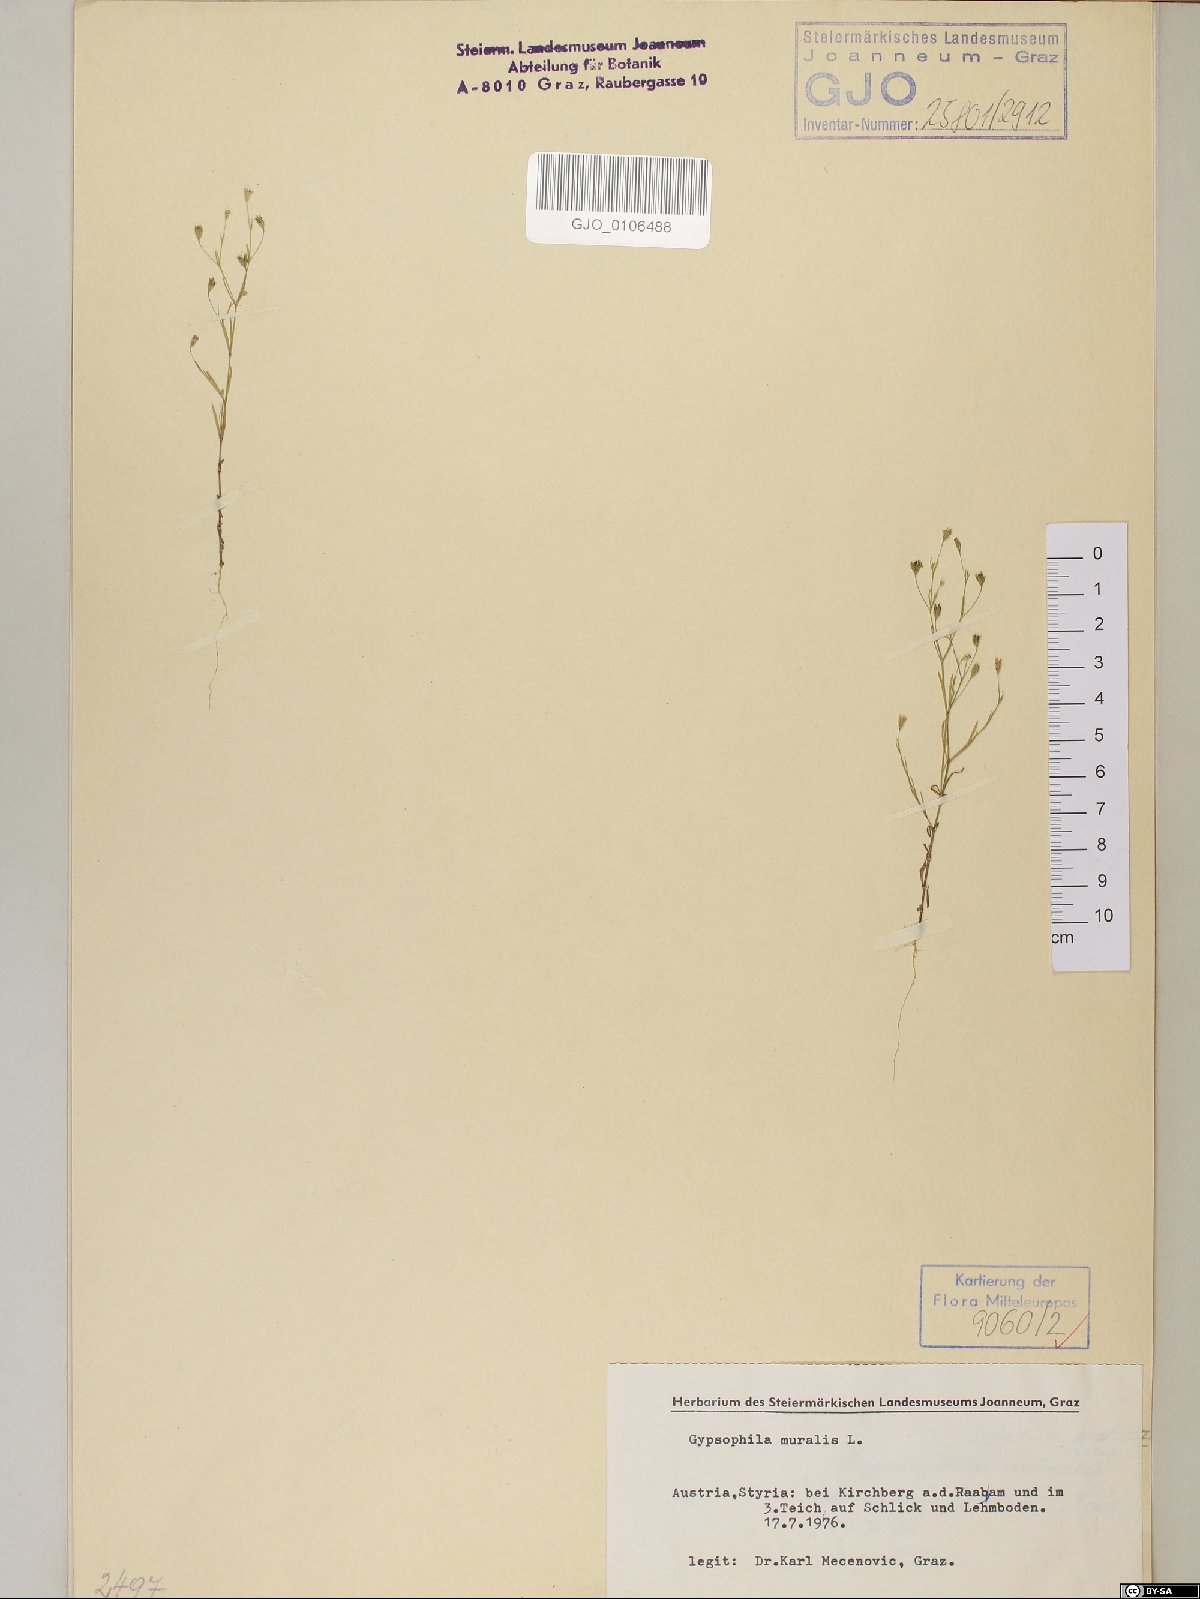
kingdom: Plantae
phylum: Tracheophyta
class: Magnoliopsida
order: Caryophyllales
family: Caryophyllaceae
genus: Psammophiliella
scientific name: Psammophiliella muralis
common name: Cushion baby's-breath
